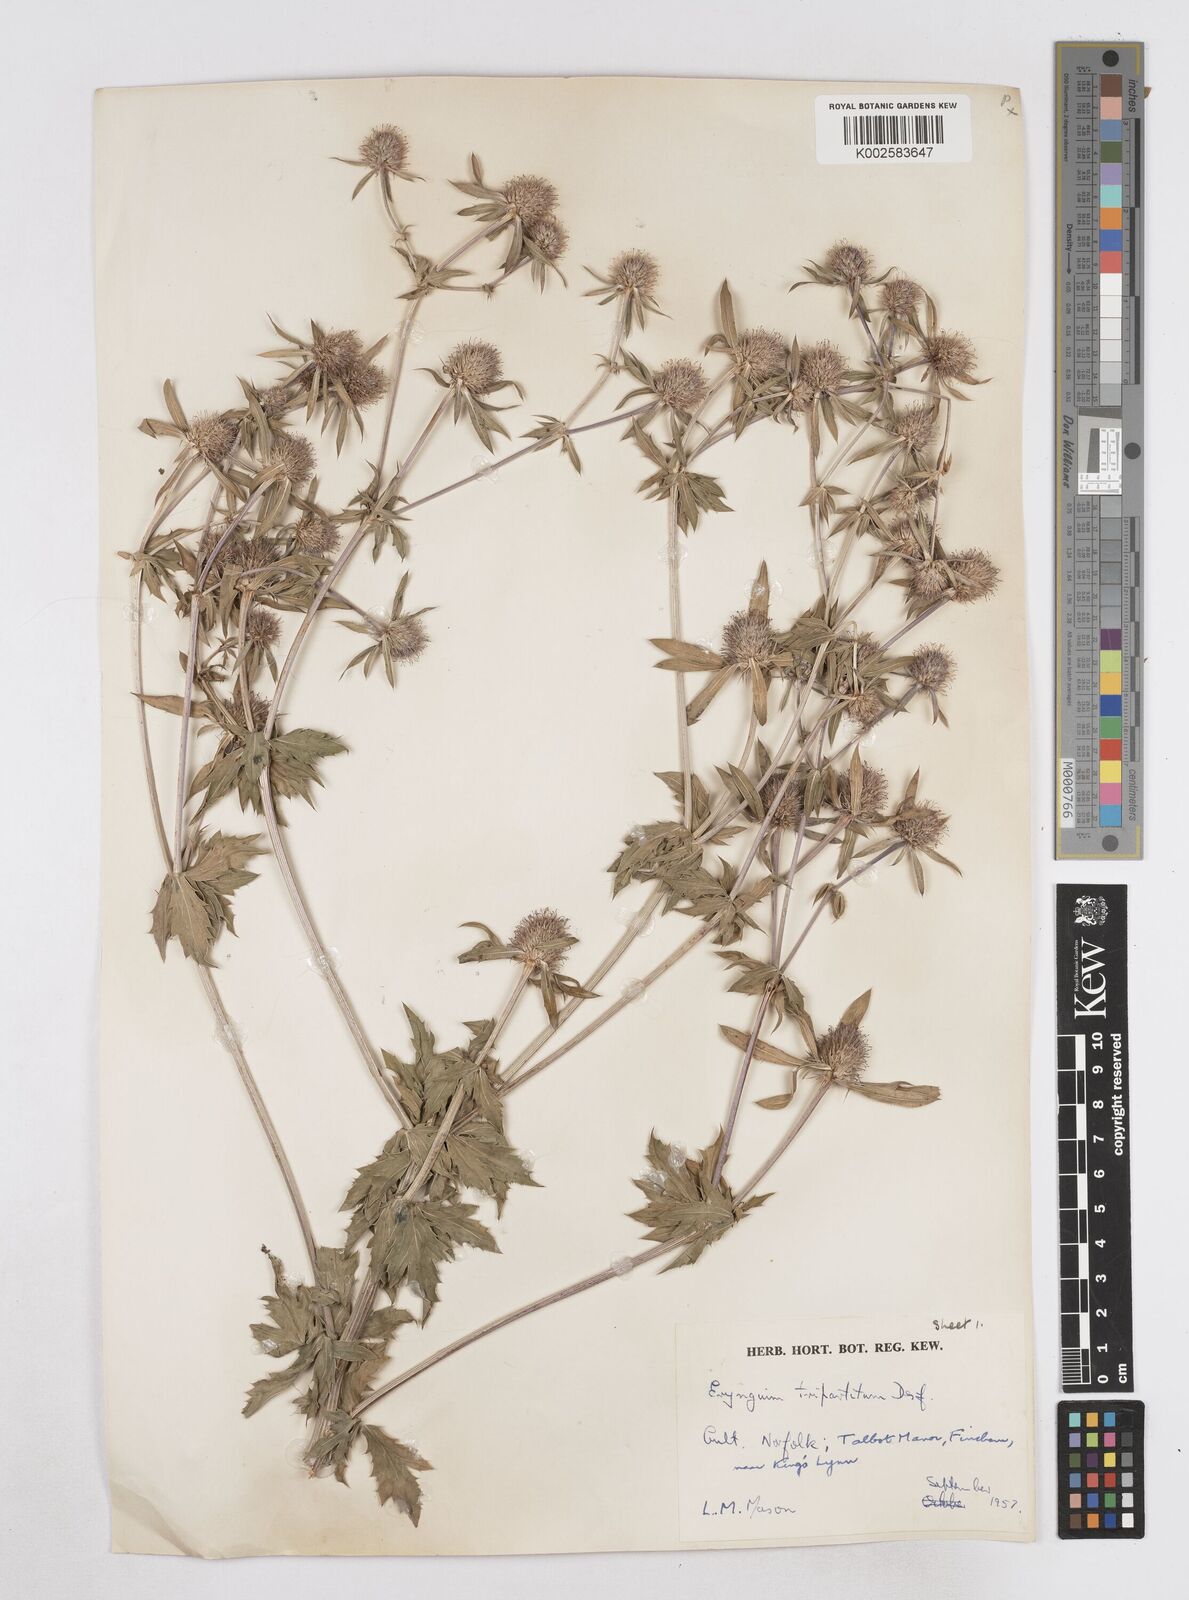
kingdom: Plantae
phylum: Tracheophyta
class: Magnoliopsida
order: Apiales
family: Apiaceae
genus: Eryngium
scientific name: Eryngium tripartitum
